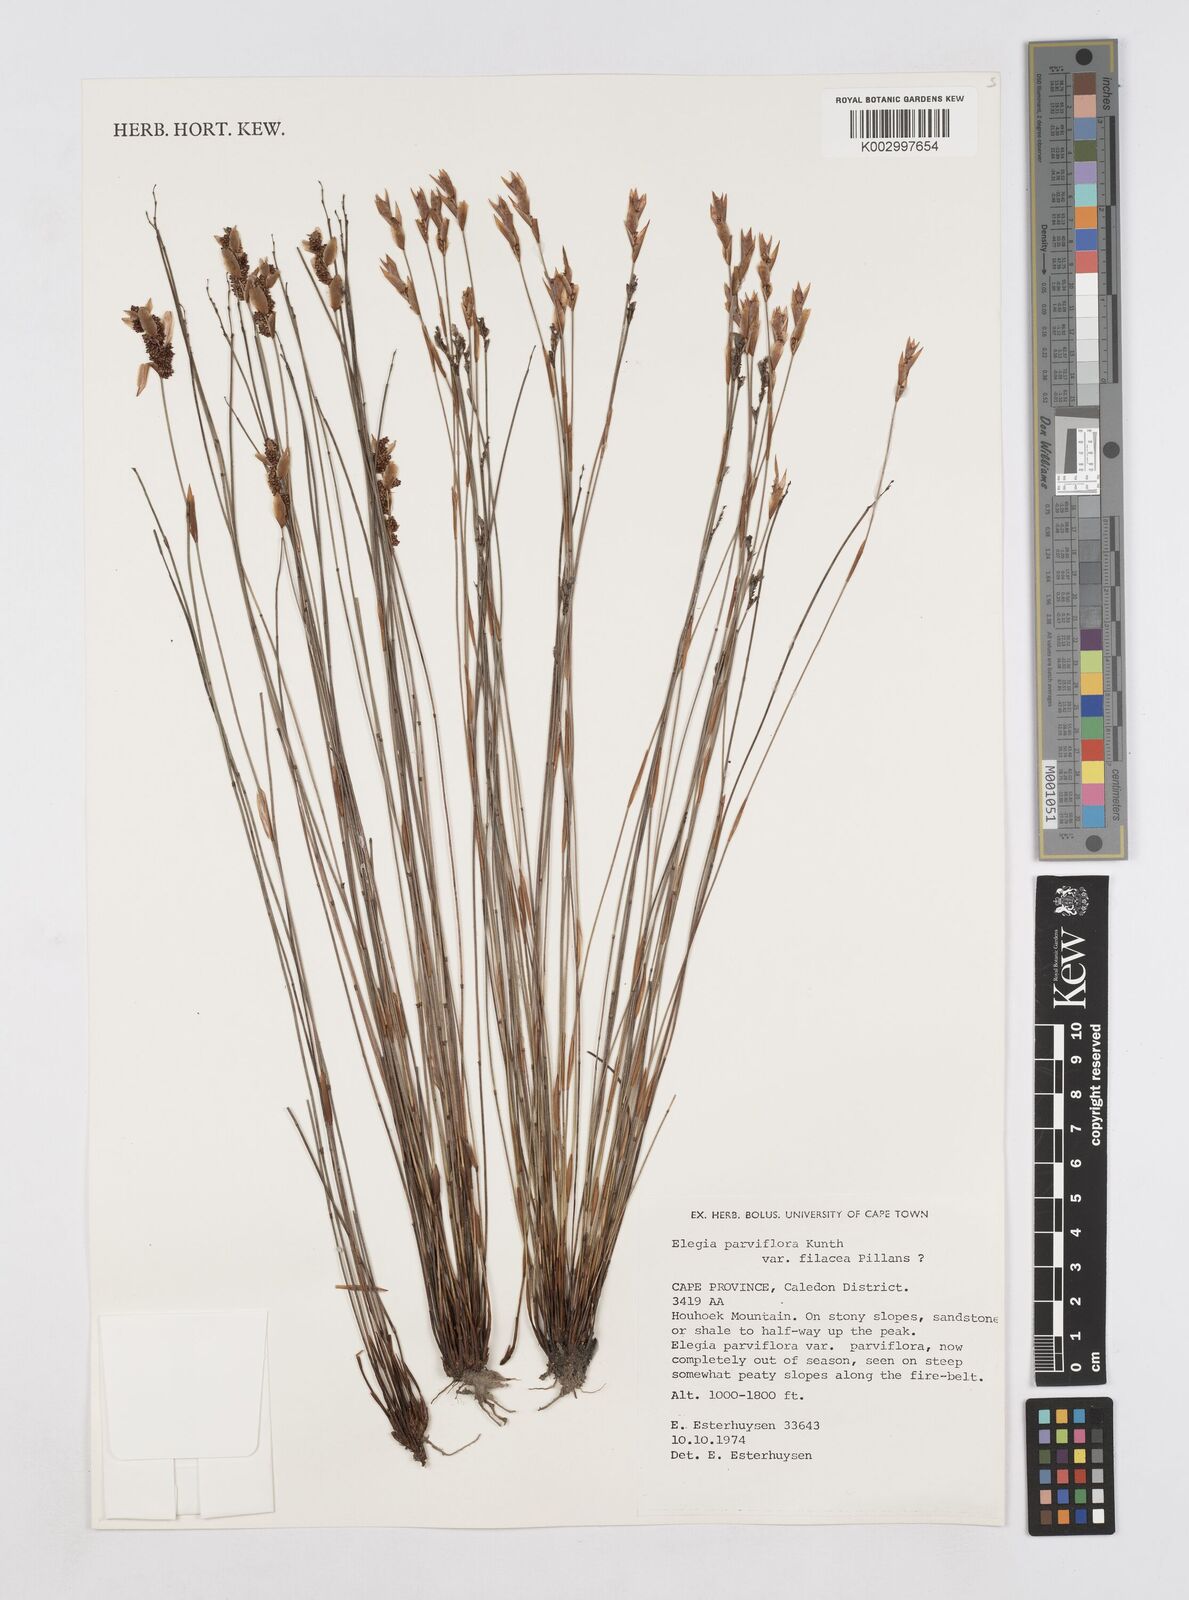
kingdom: Plantae
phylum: Tracheophyta
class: Liliopsida
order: Poales
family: Restionaceae
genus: Cannomois
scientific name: Cannomois parviflora
